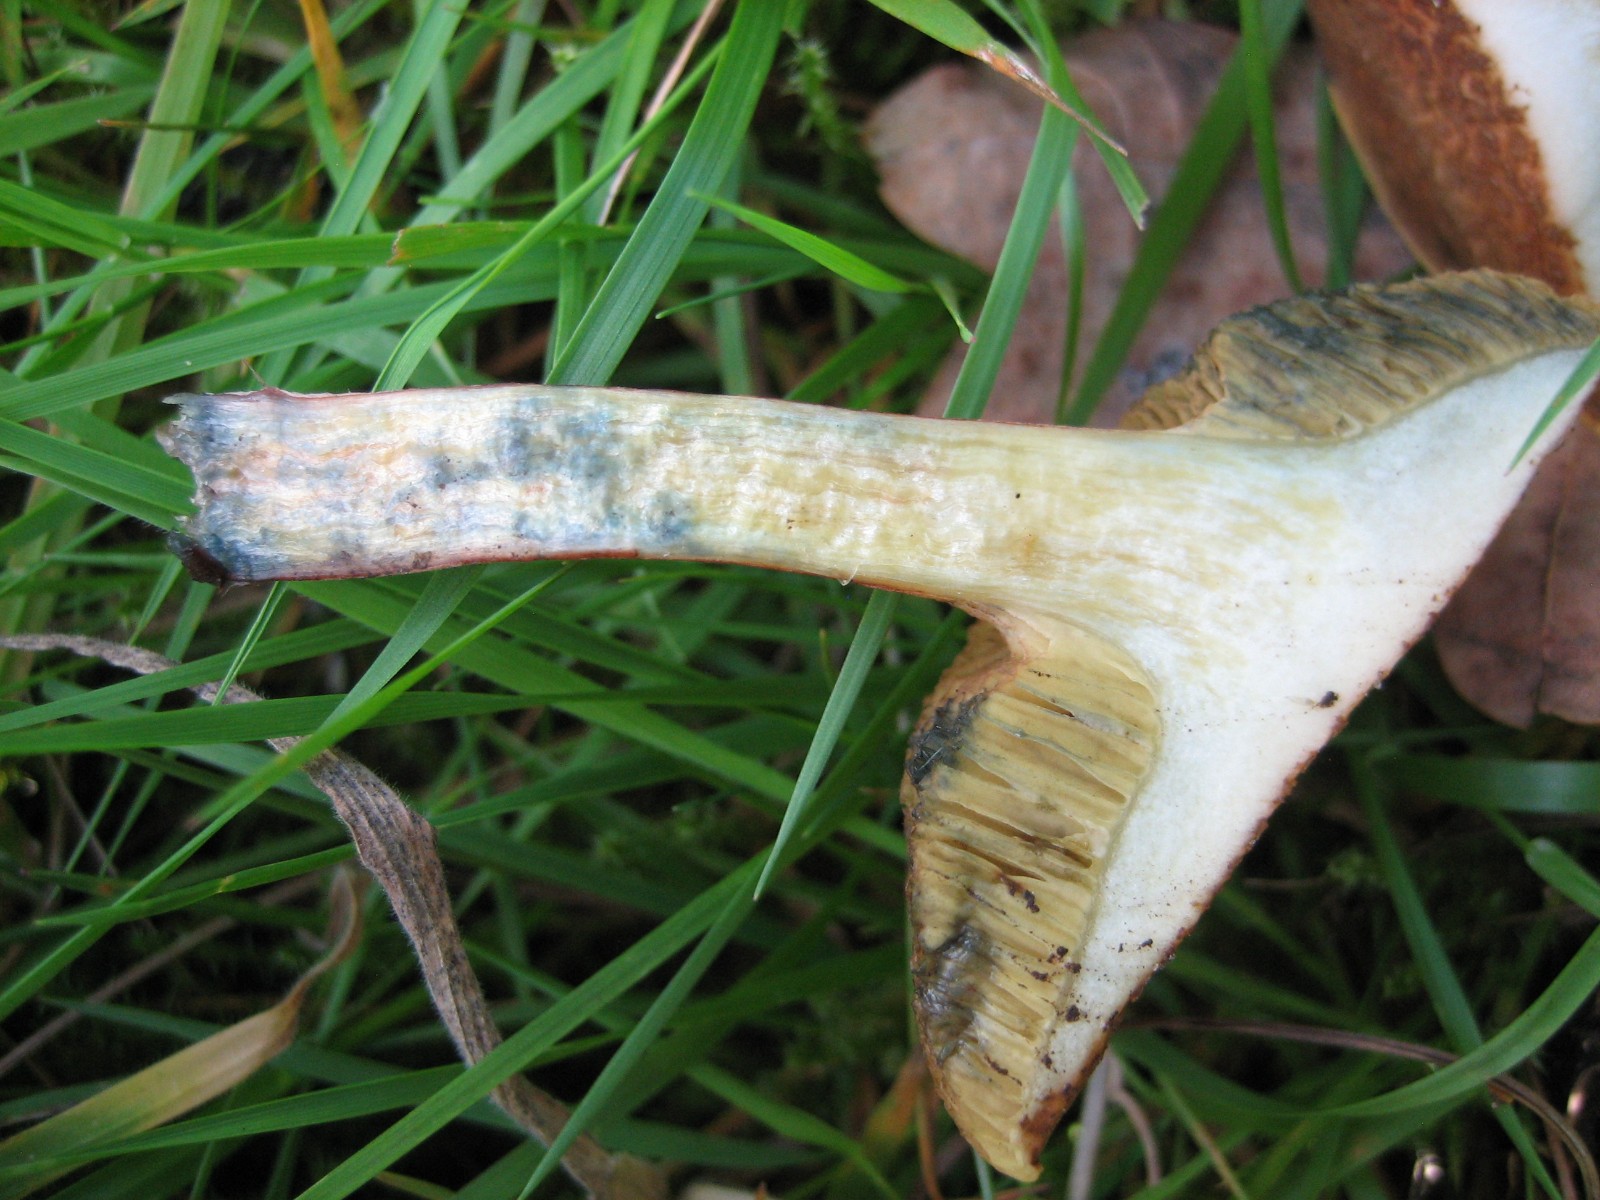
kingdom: Fungi
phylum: Basidiomycota
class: Agaricomycetes
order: Boletales
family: Boletaceae
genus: Xerocomellus
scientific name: Xerocomellus cisalpinus
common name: finsprukken rørhat
